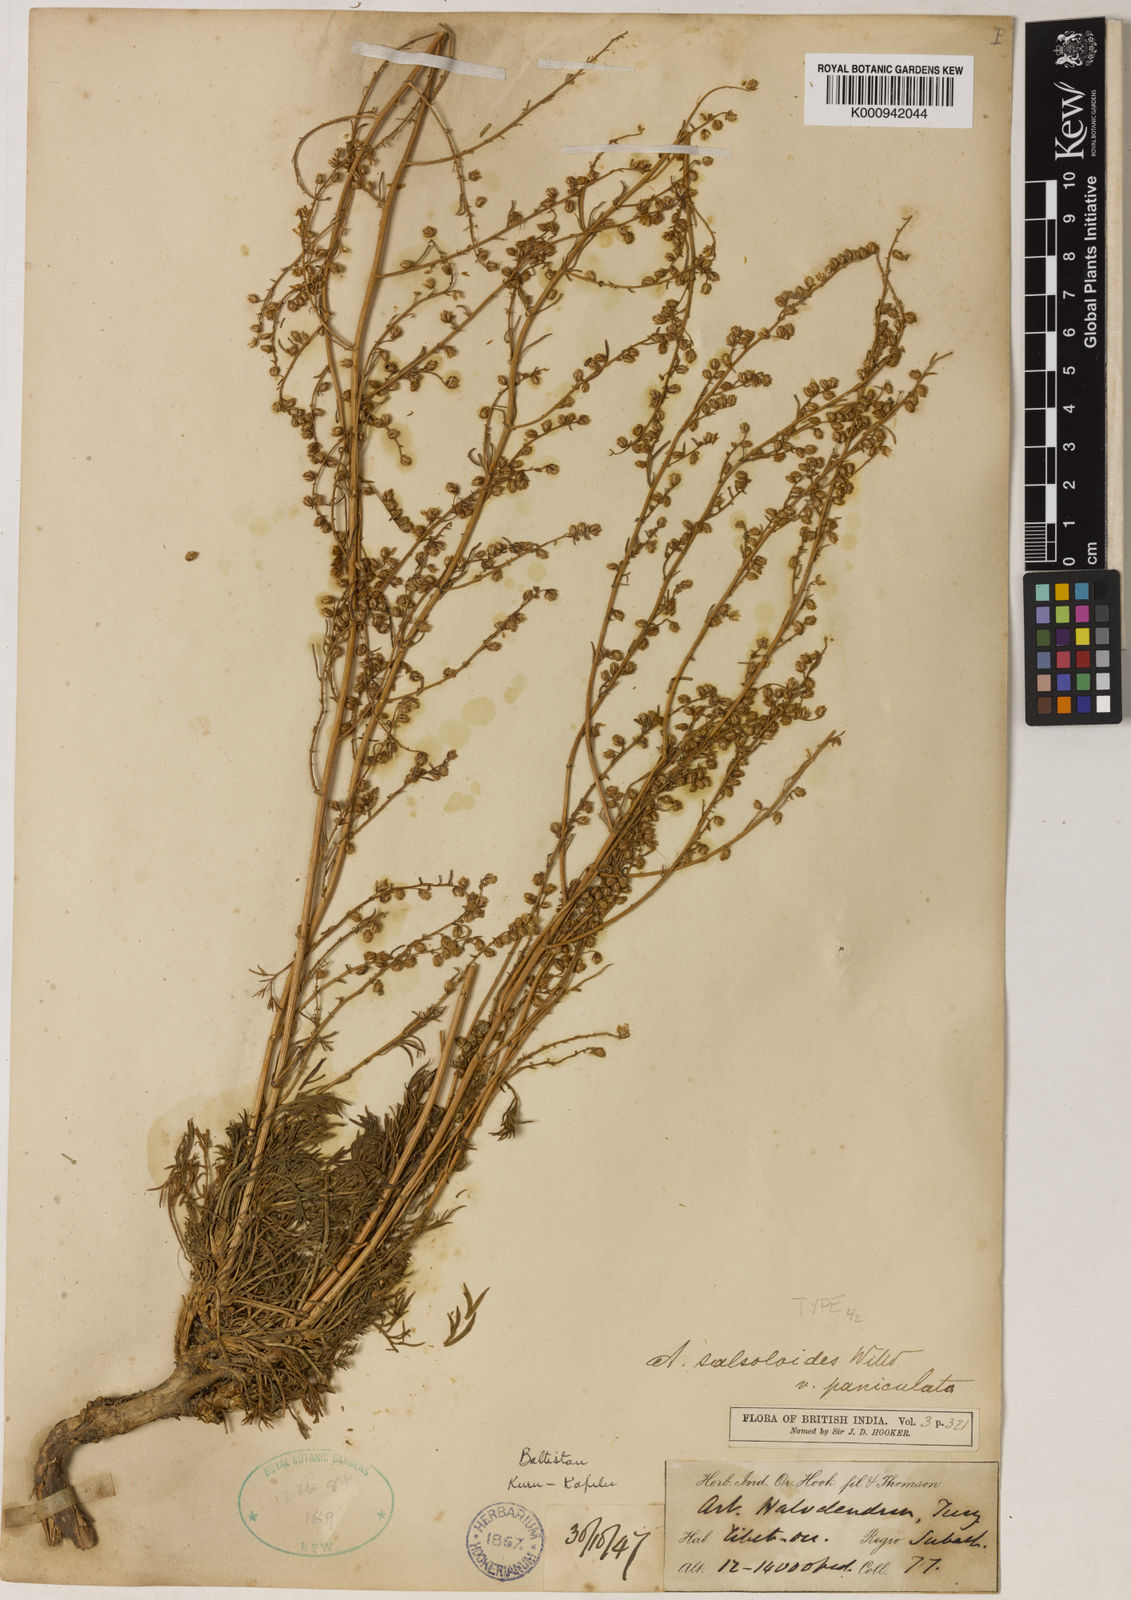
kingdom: Plantae
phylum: Tracheophyta
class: Magnoliopsida
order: Asterales
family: Asteraceae
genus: Artemisia
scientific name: Artemisia xigazeensis
